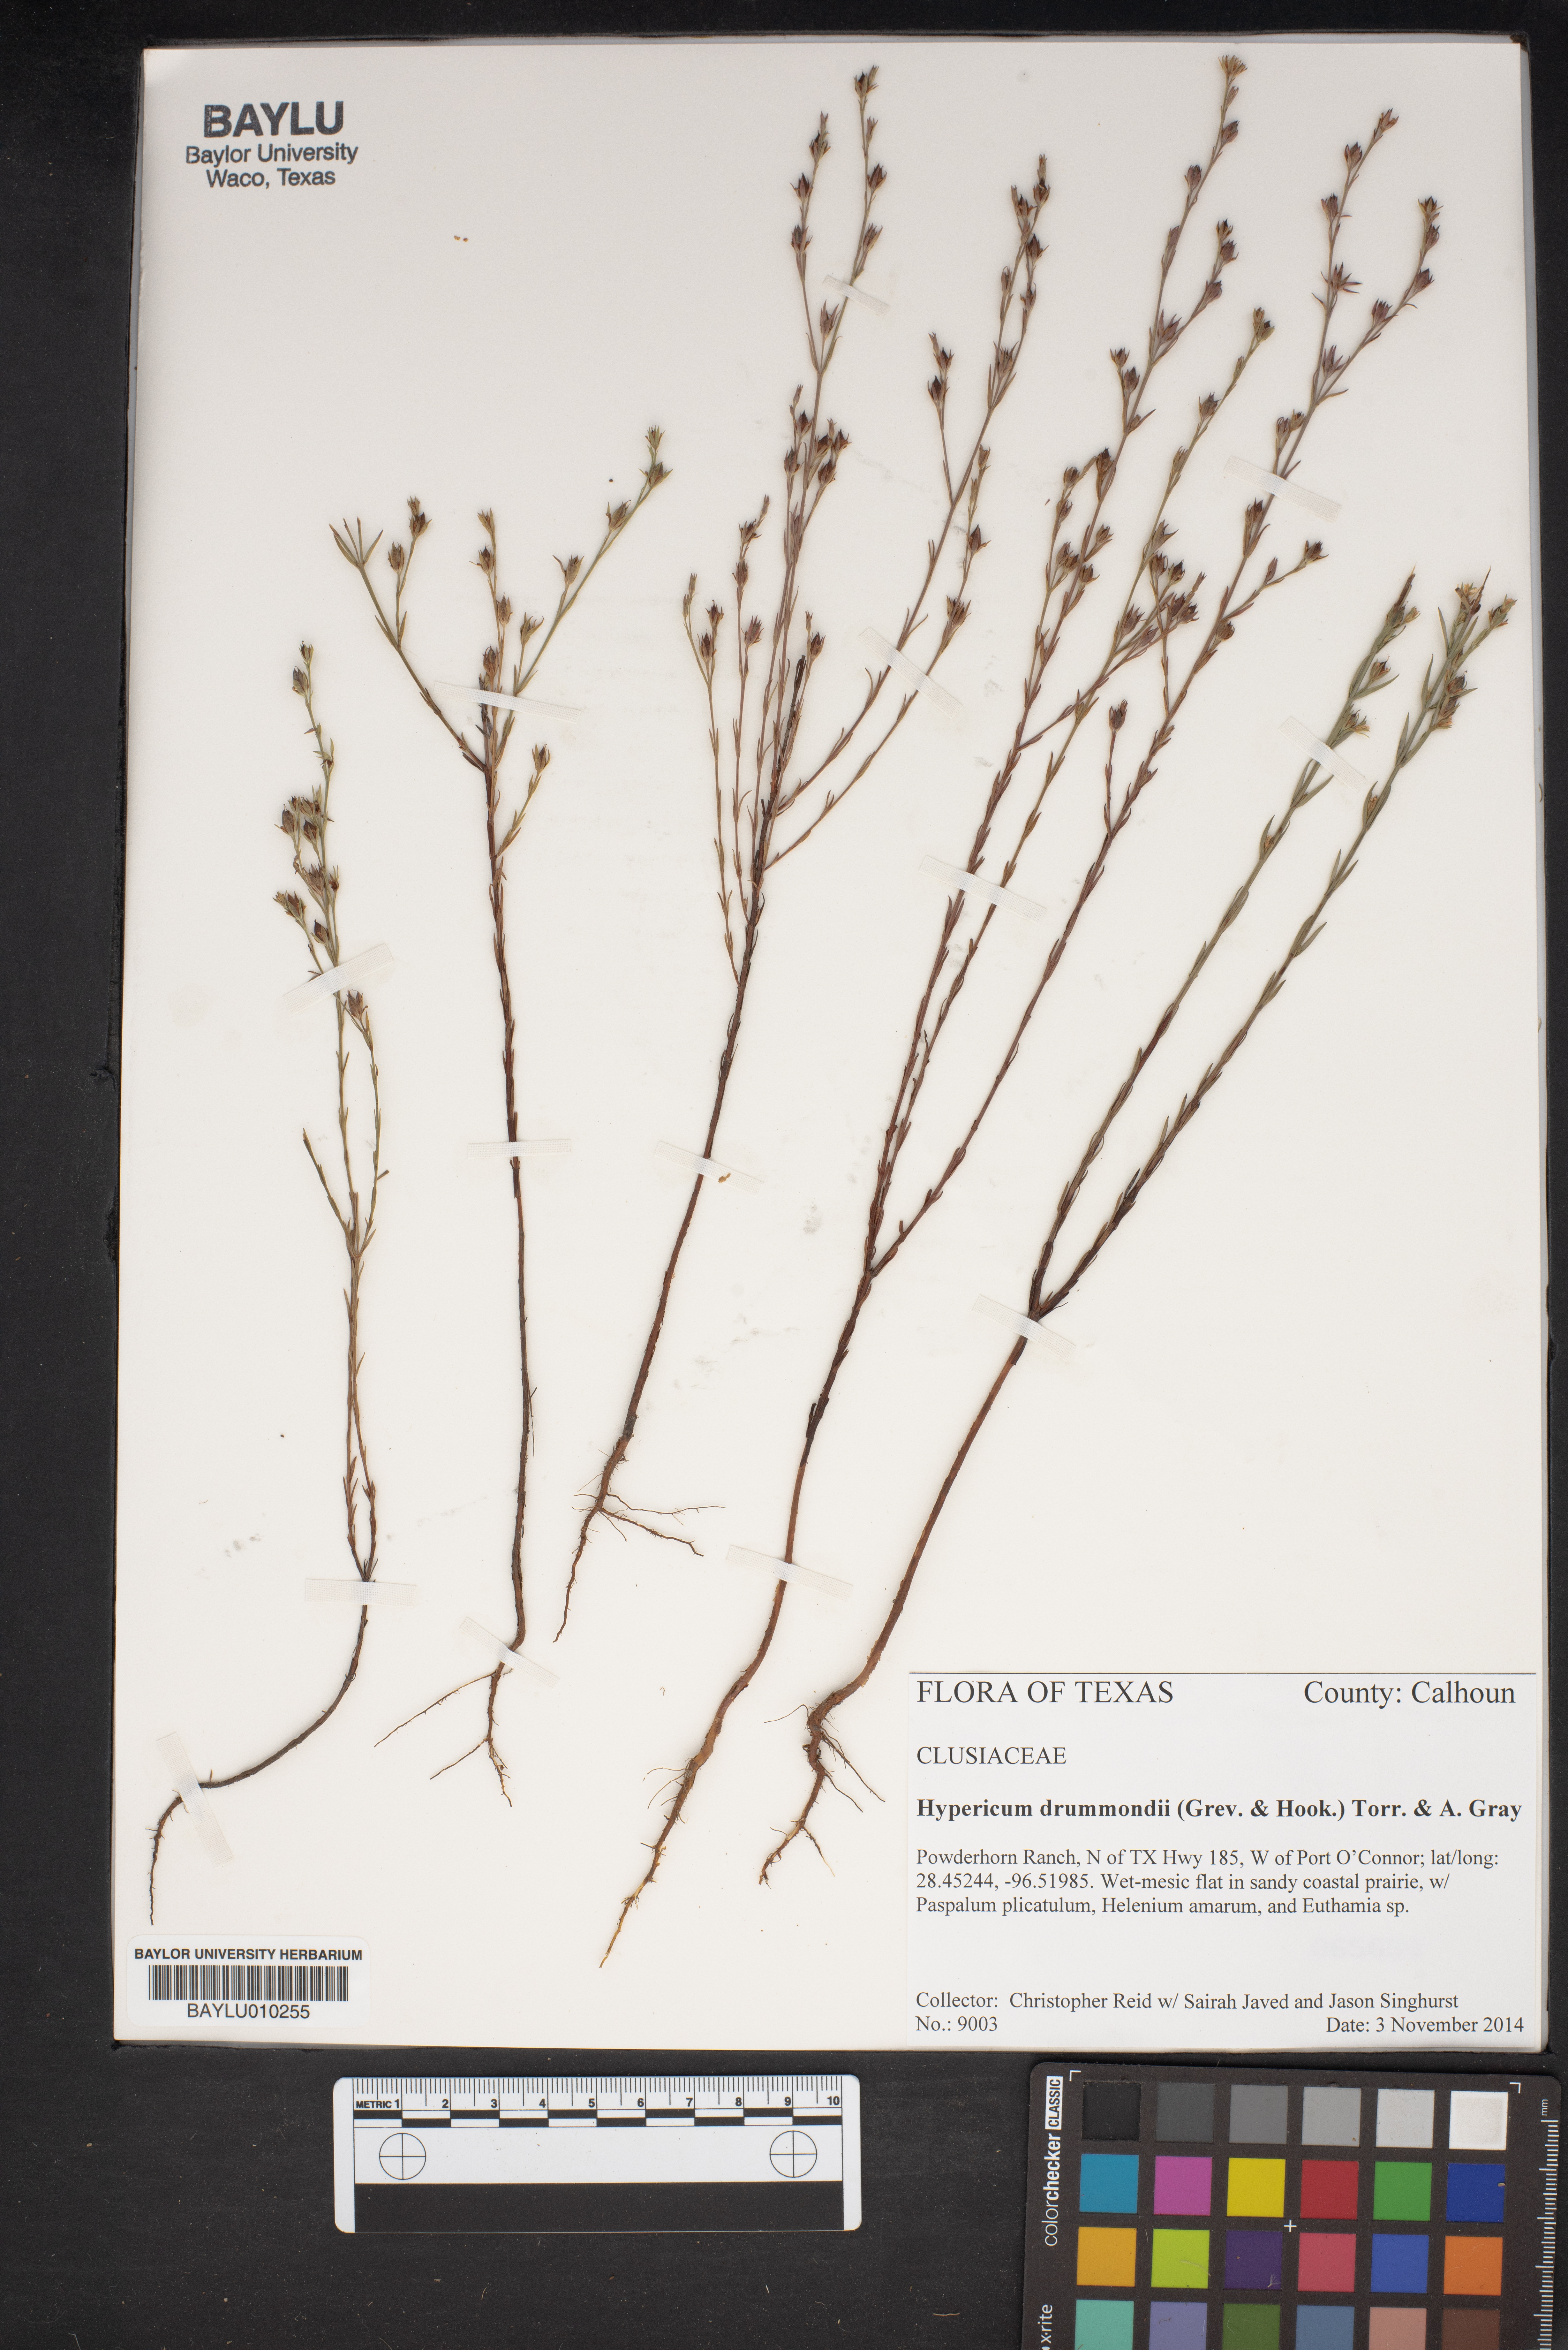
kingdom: Plantae
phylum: Tracheophyta
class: Magnoliopsida
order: Malpighiales
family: Hypericaceae
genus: Hypericum
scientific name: Hypericum drummondii
